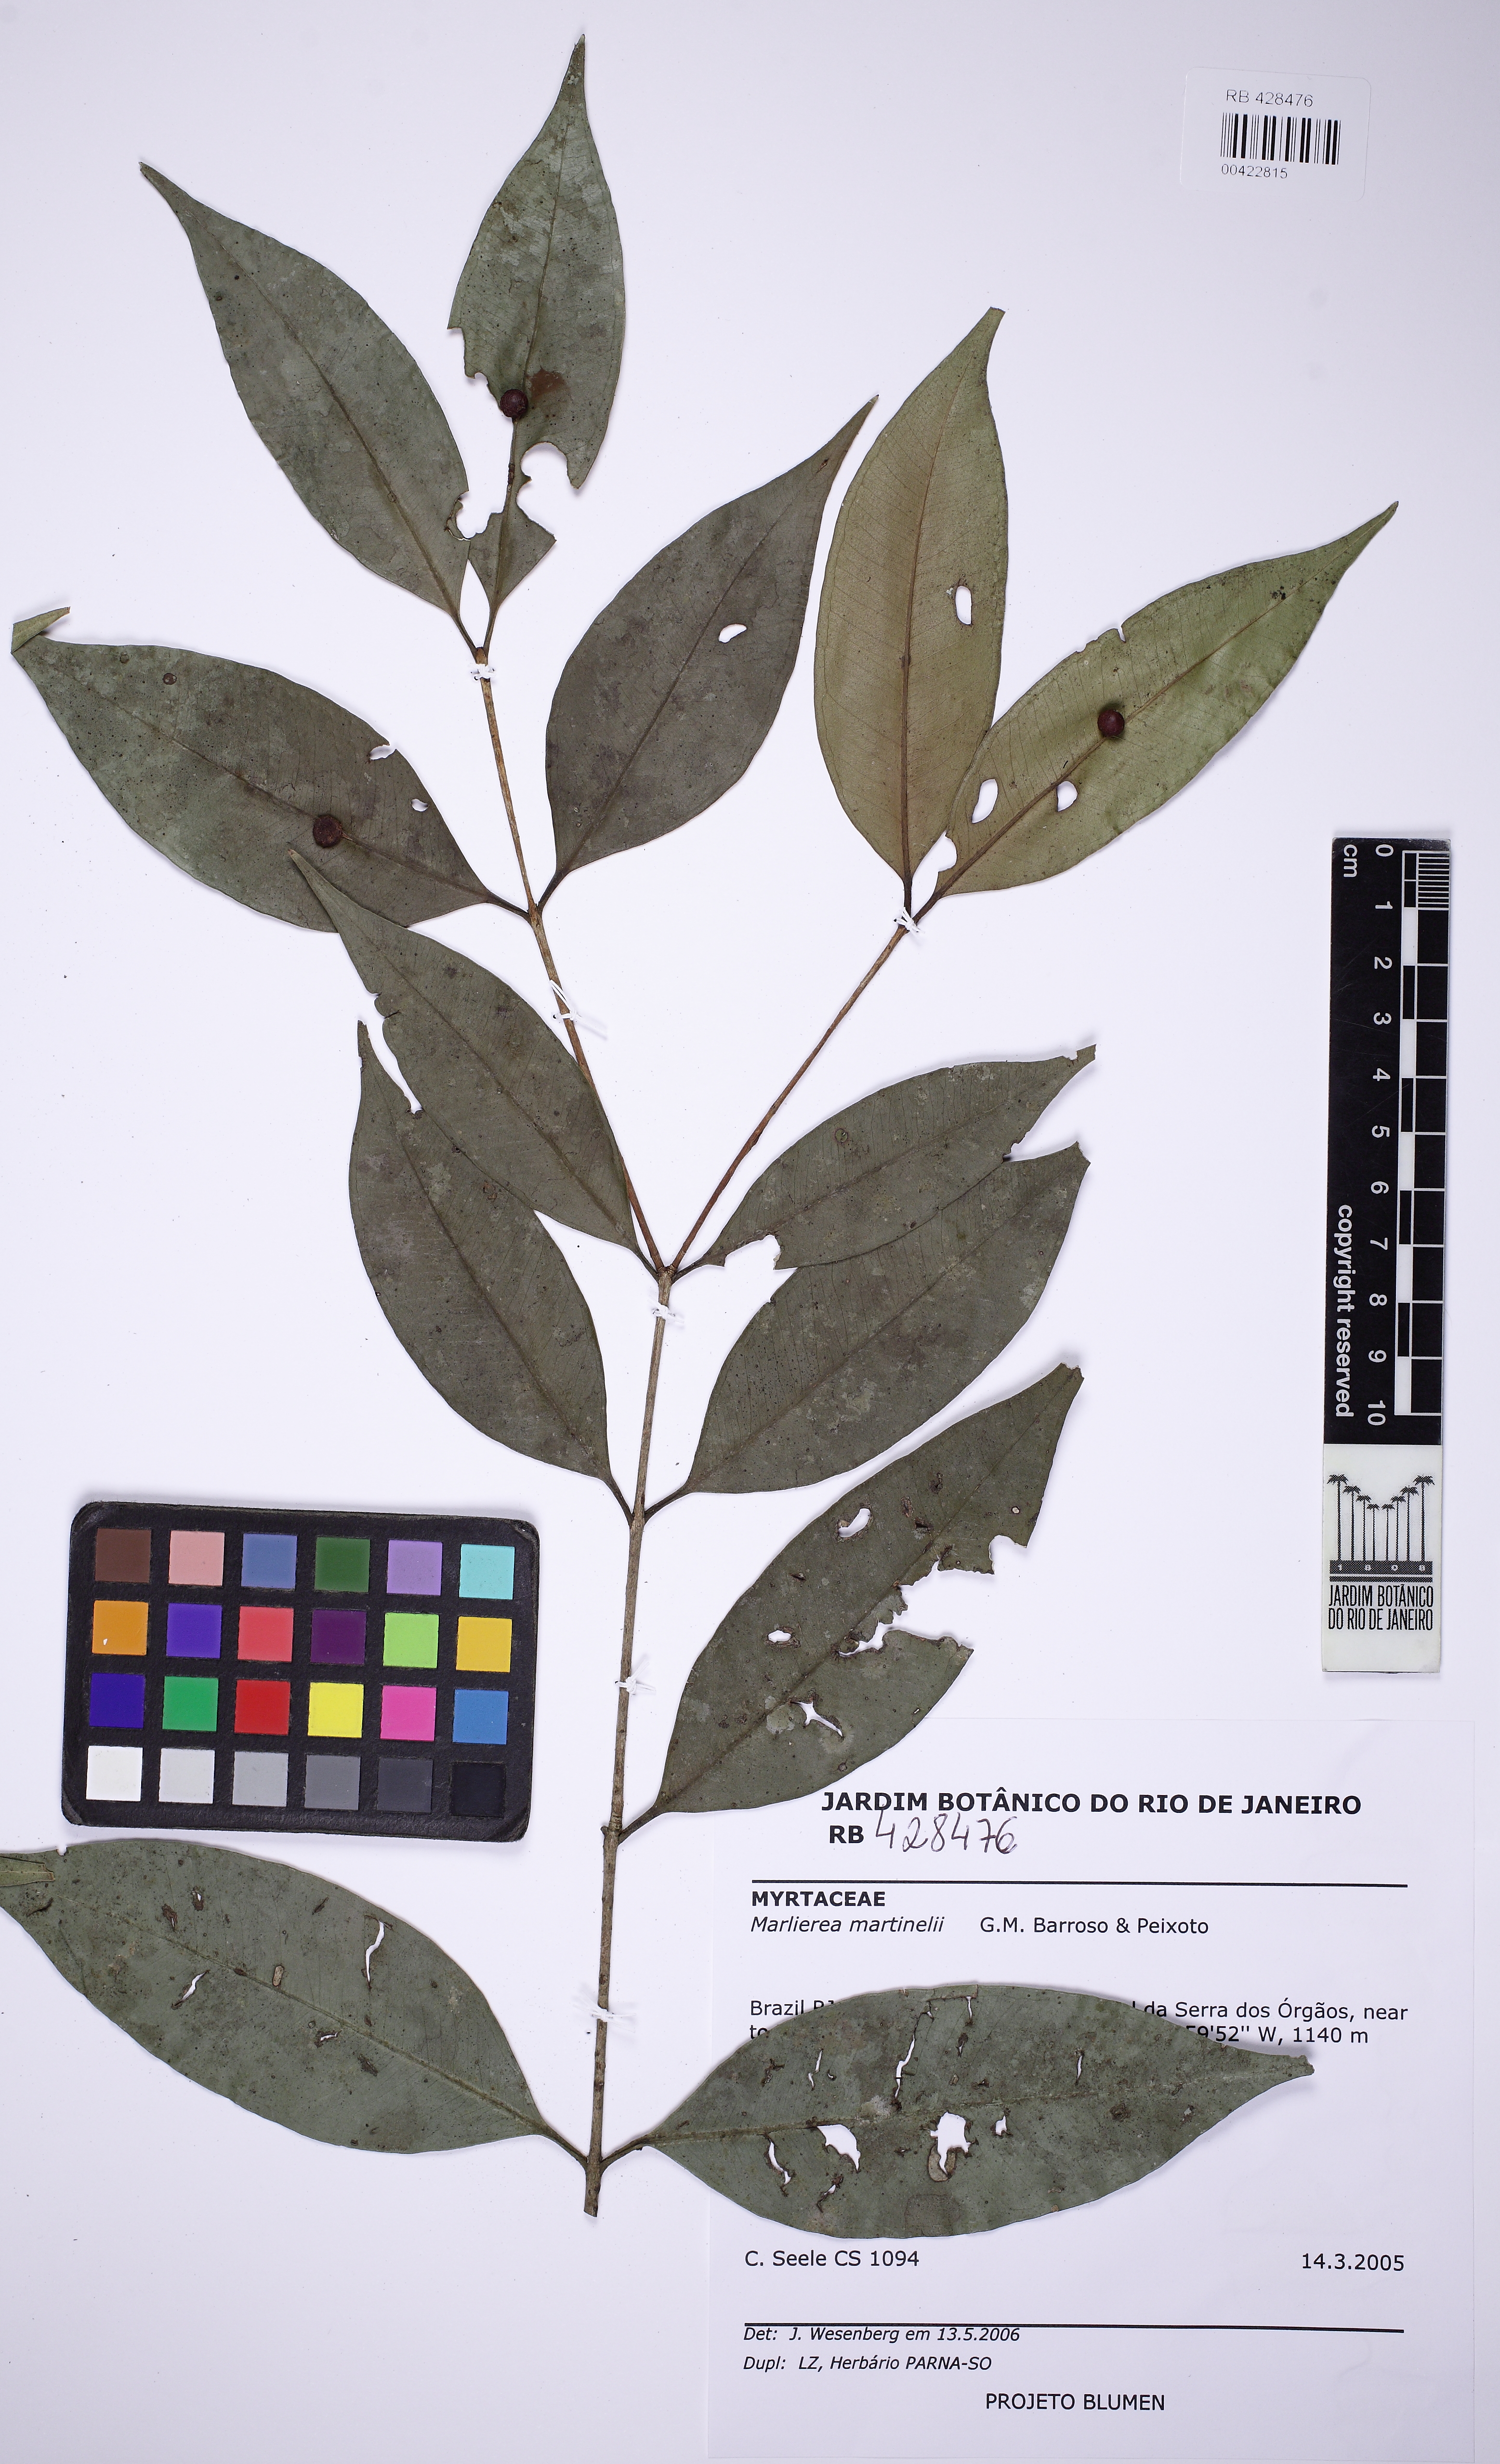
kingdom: Plantae
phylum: Tracheophyta
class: Magnoliopsida
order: Myrtales
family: Myrtaceae
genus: Siphoneugena
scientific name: Siphoneugena martinellii
